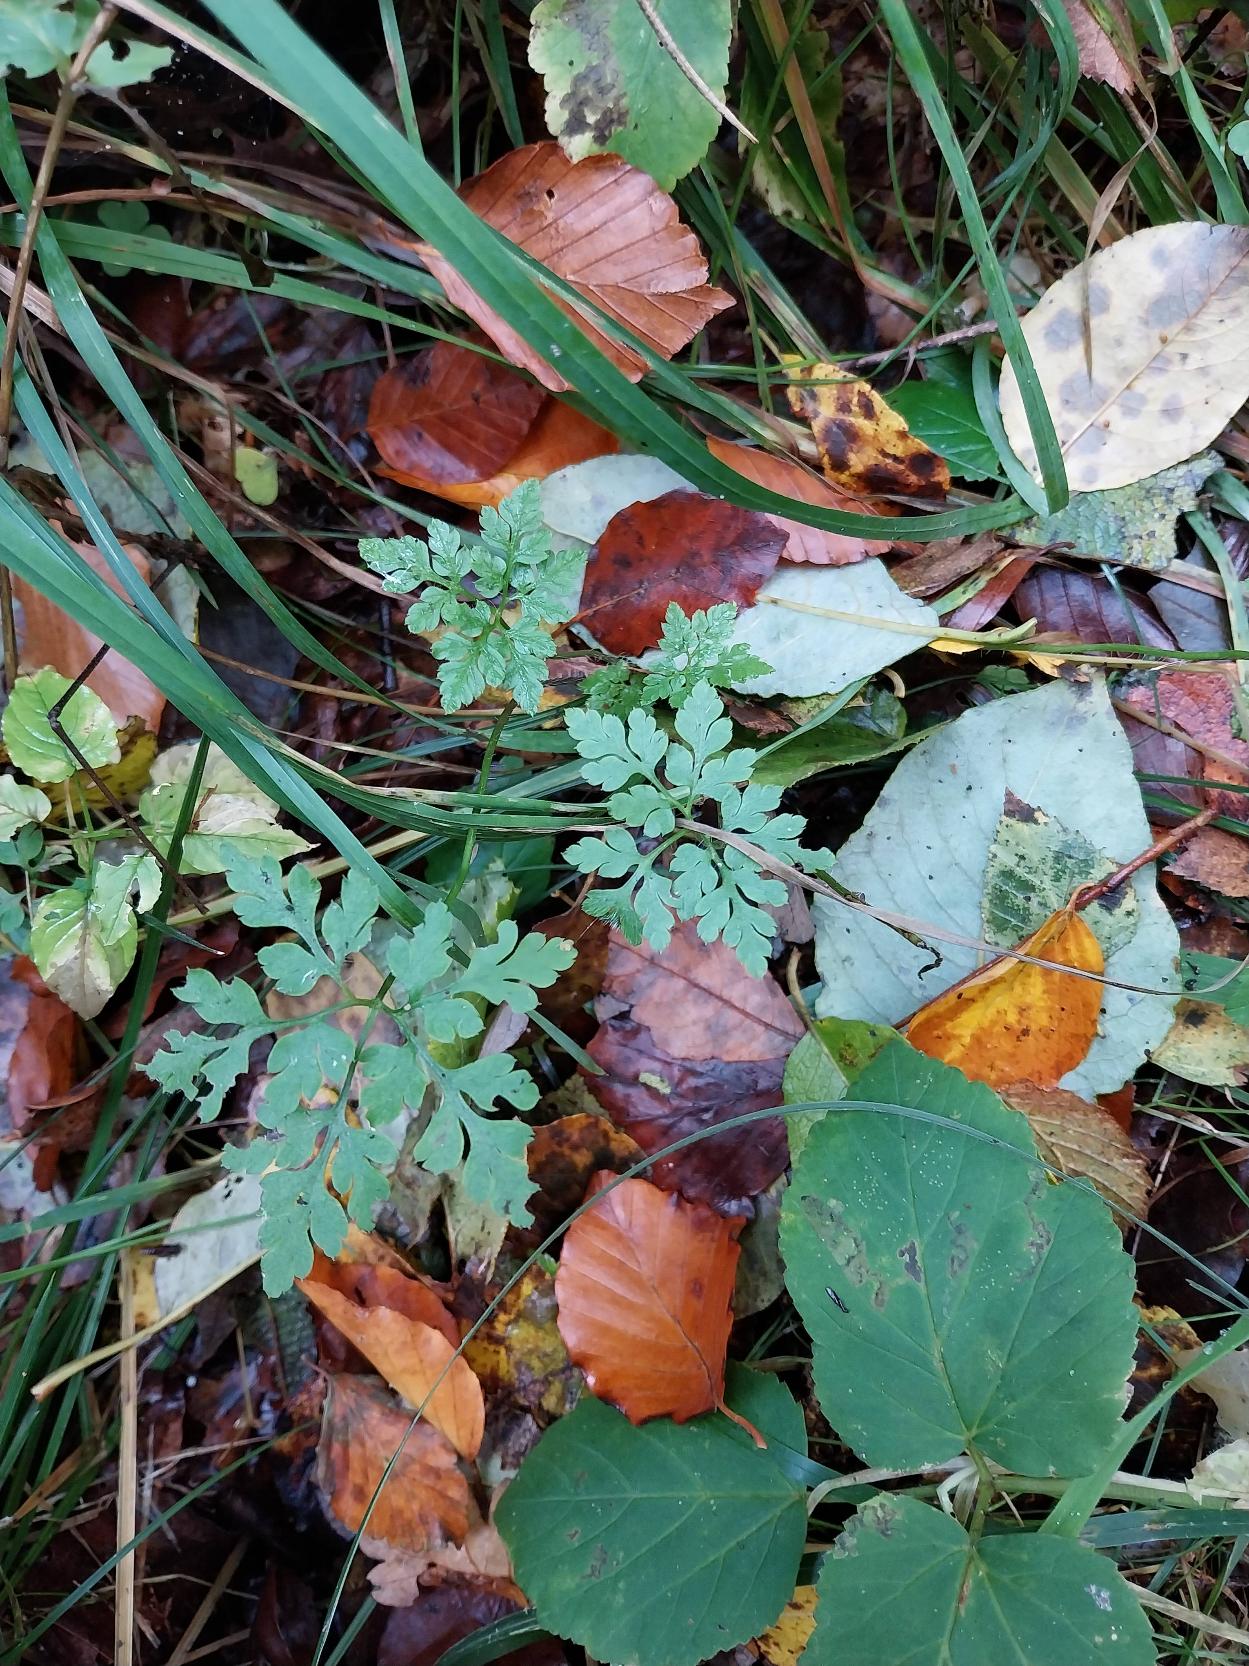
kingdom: Plantae
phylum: Tracheophyta
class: Magnoliopsida
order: Geraniales
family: Geraniaceae
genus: Geranium
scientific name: Geranium robertianum
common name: Stinkende storkenæb
